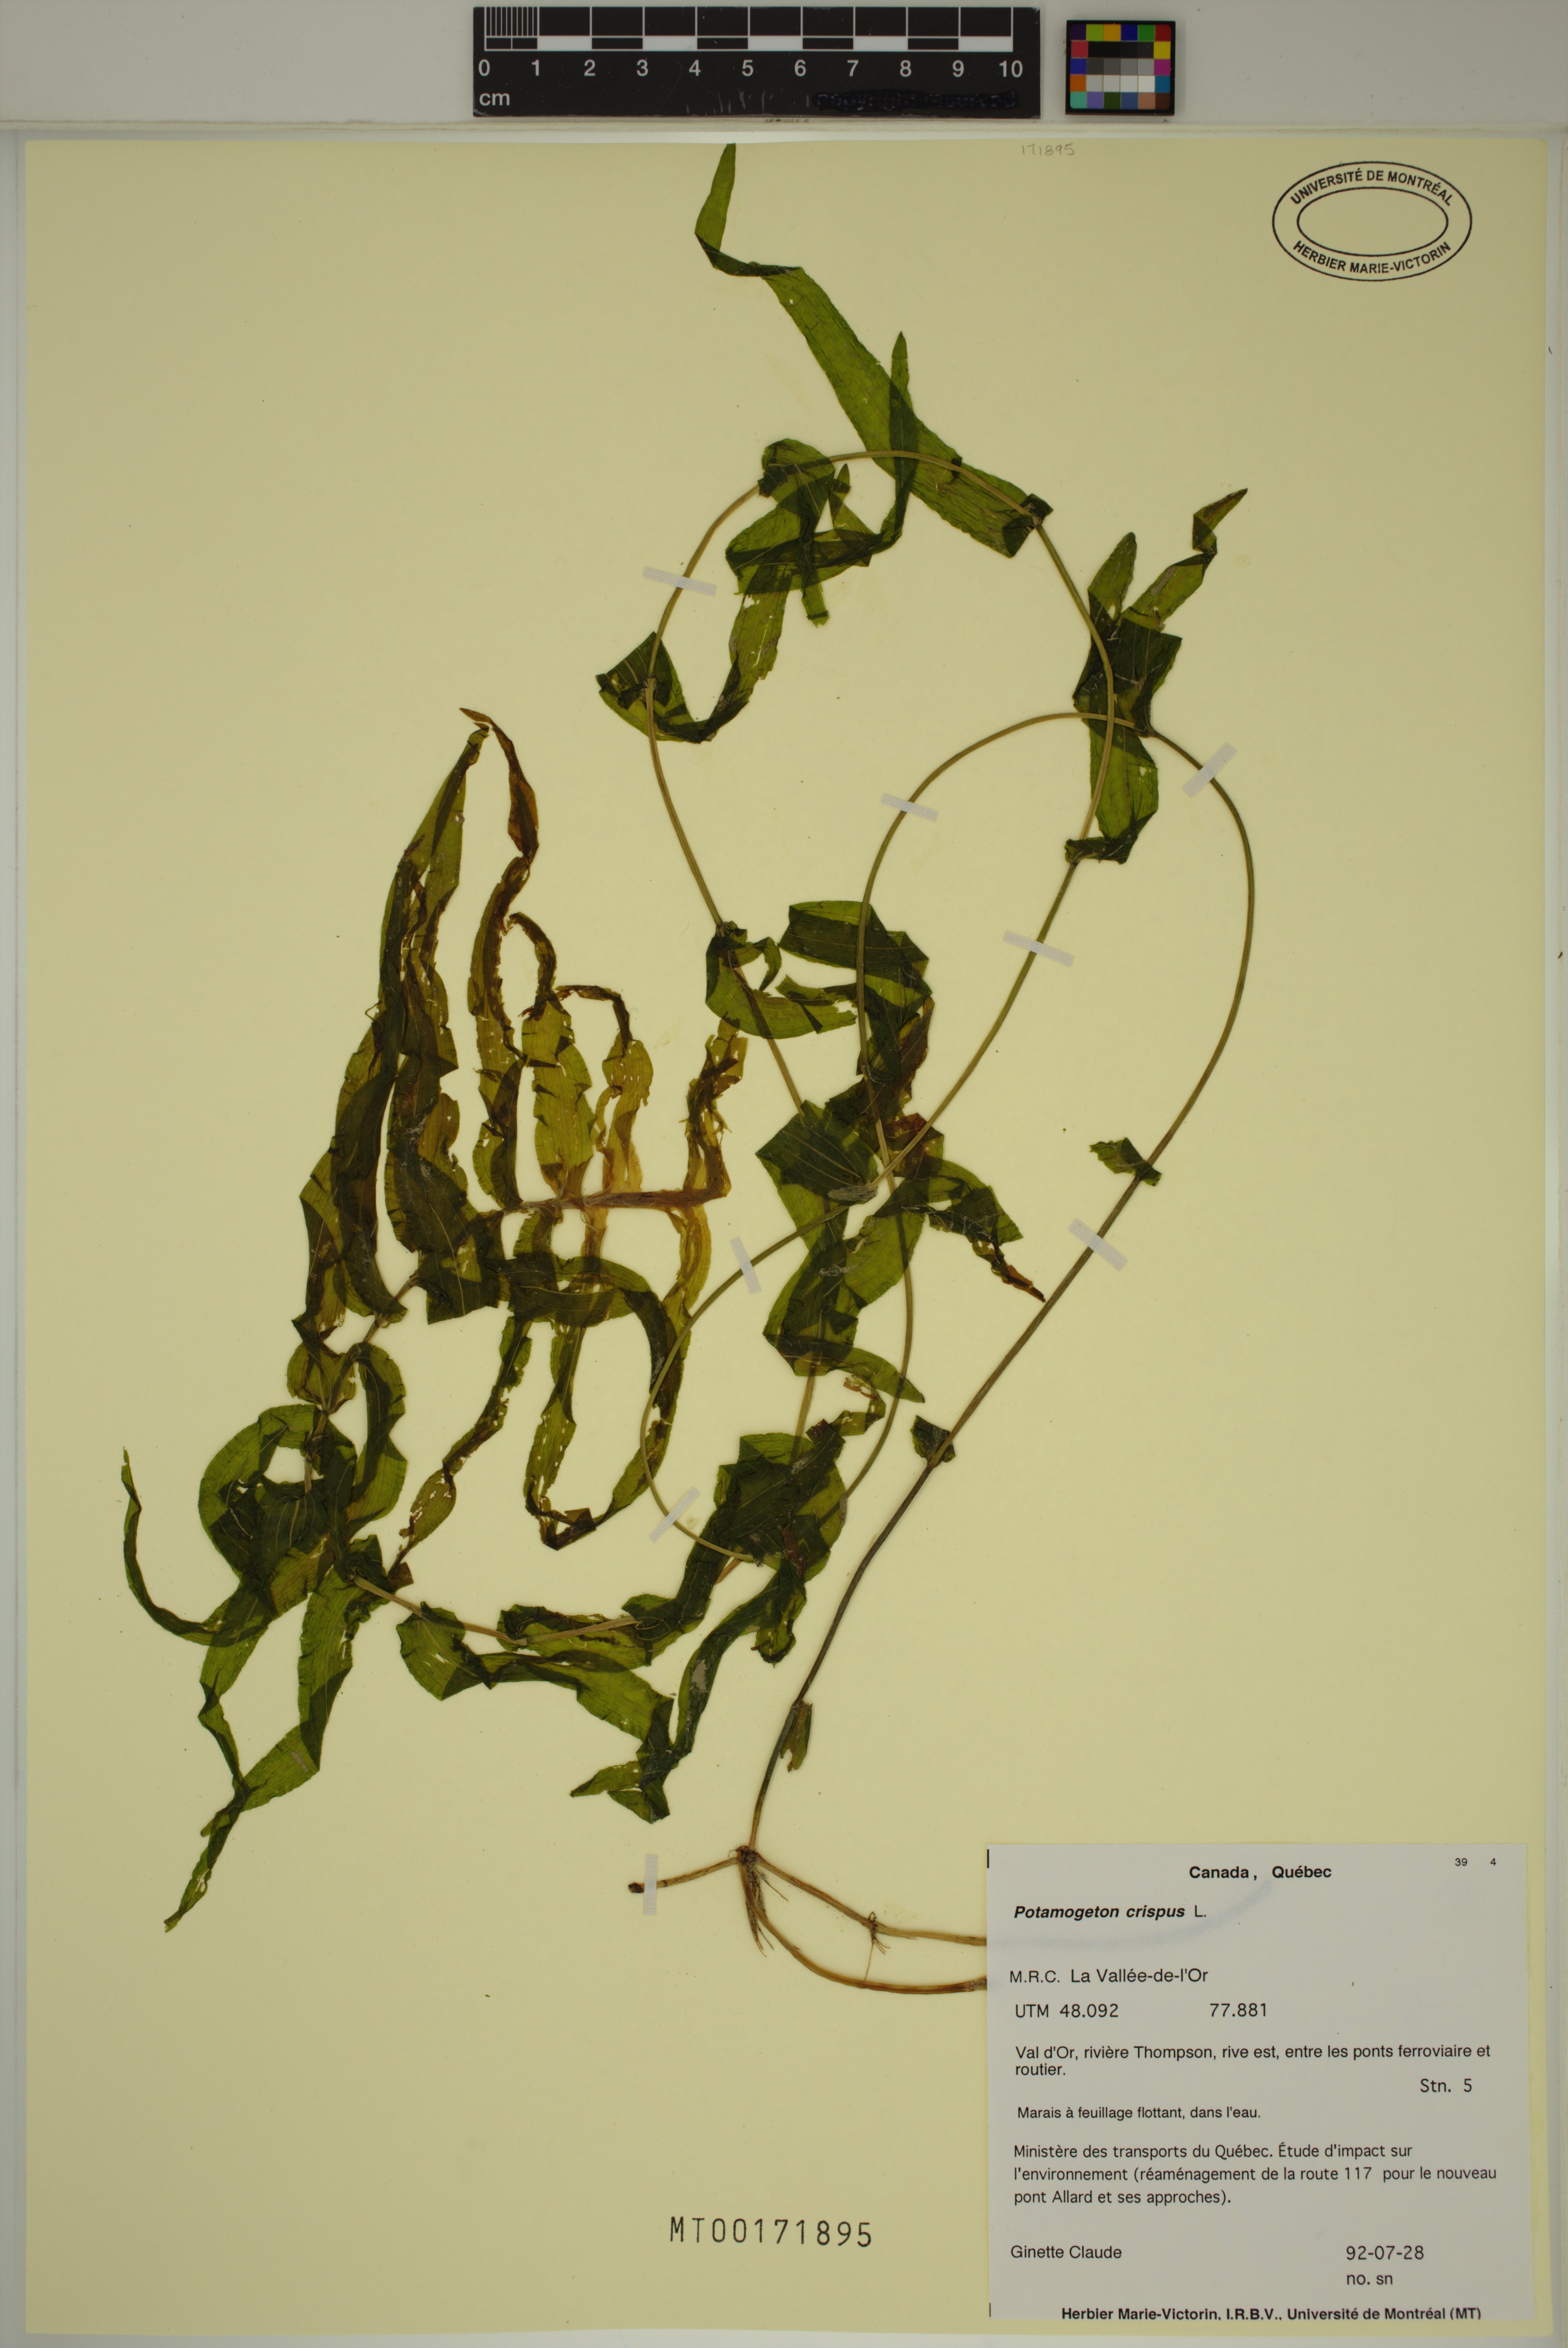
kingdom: Plantae
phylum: Tracheophyta
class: Liliopsida
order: Alismatales
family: Potamogetonaceae
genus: Potamogeton
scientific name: Potamogeton crispus
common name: Curled pondweed
